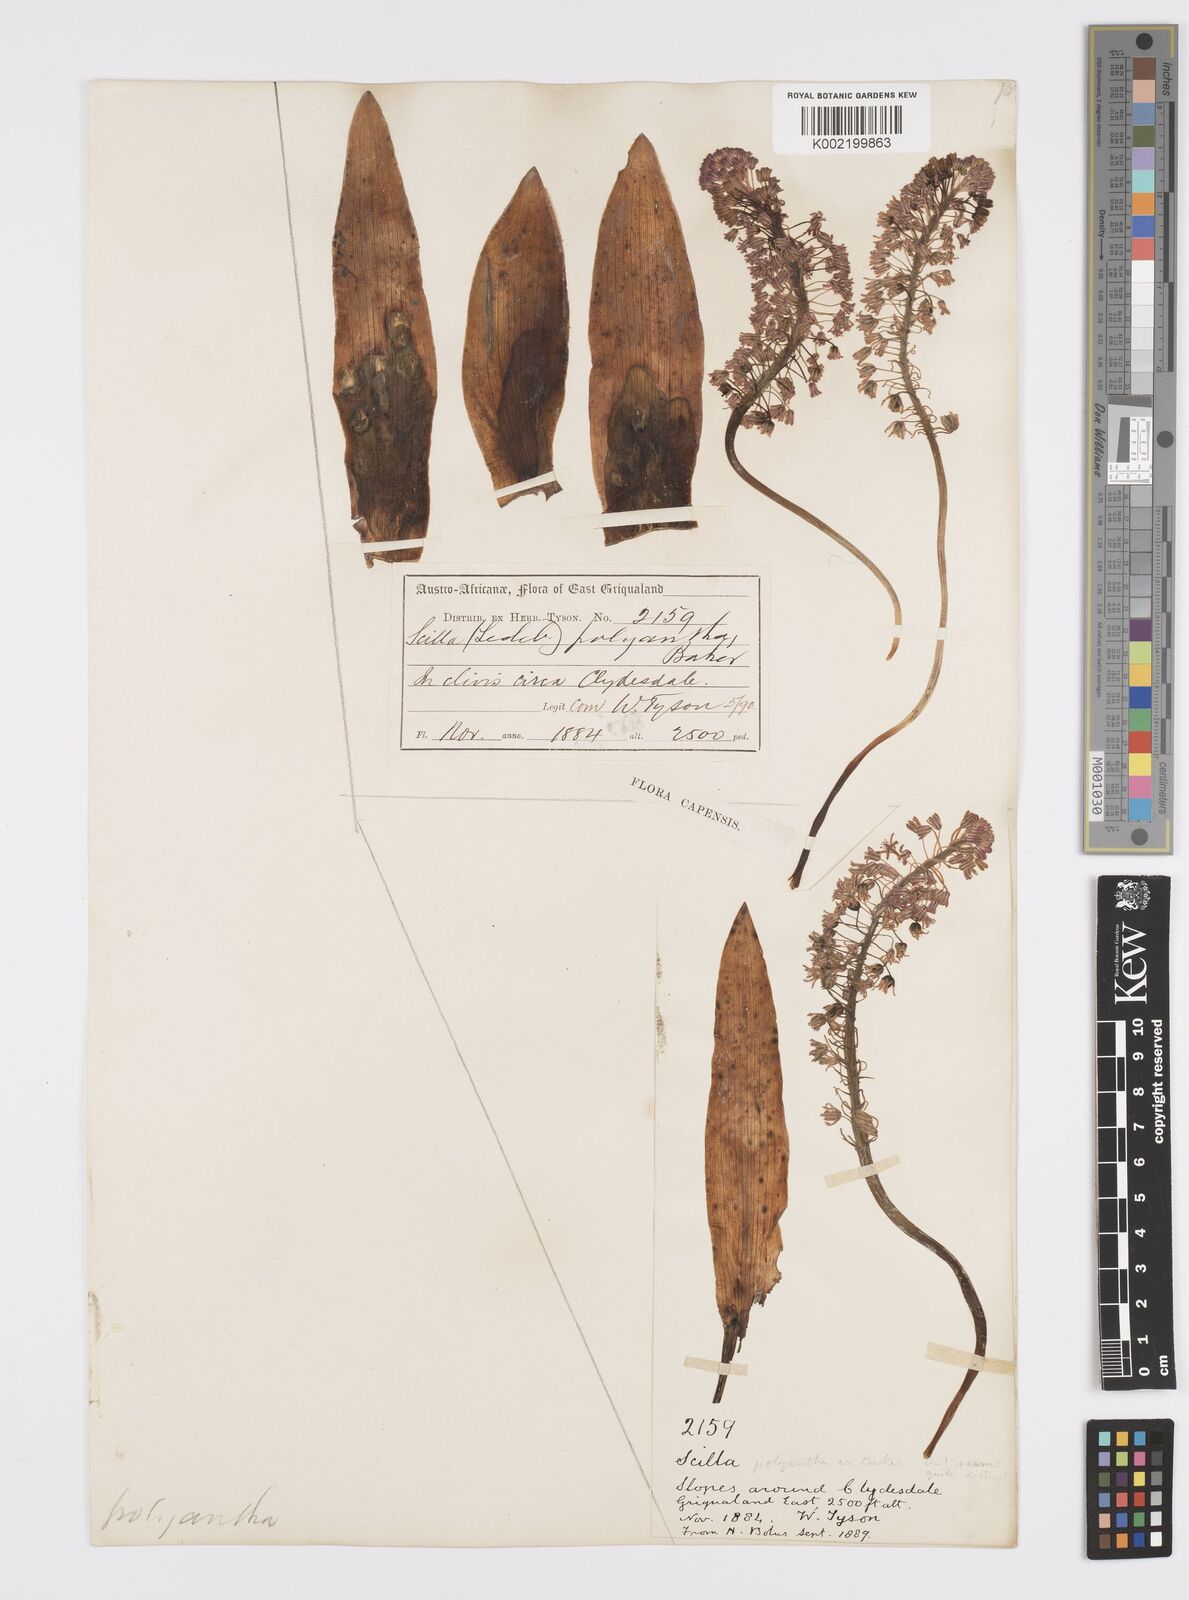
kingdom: Plantae
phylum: Tracheophyta
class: Liliopsida
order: Asparagales
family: Asparagaceae
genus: Ledebouria
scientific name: Ledebouria floribunda
